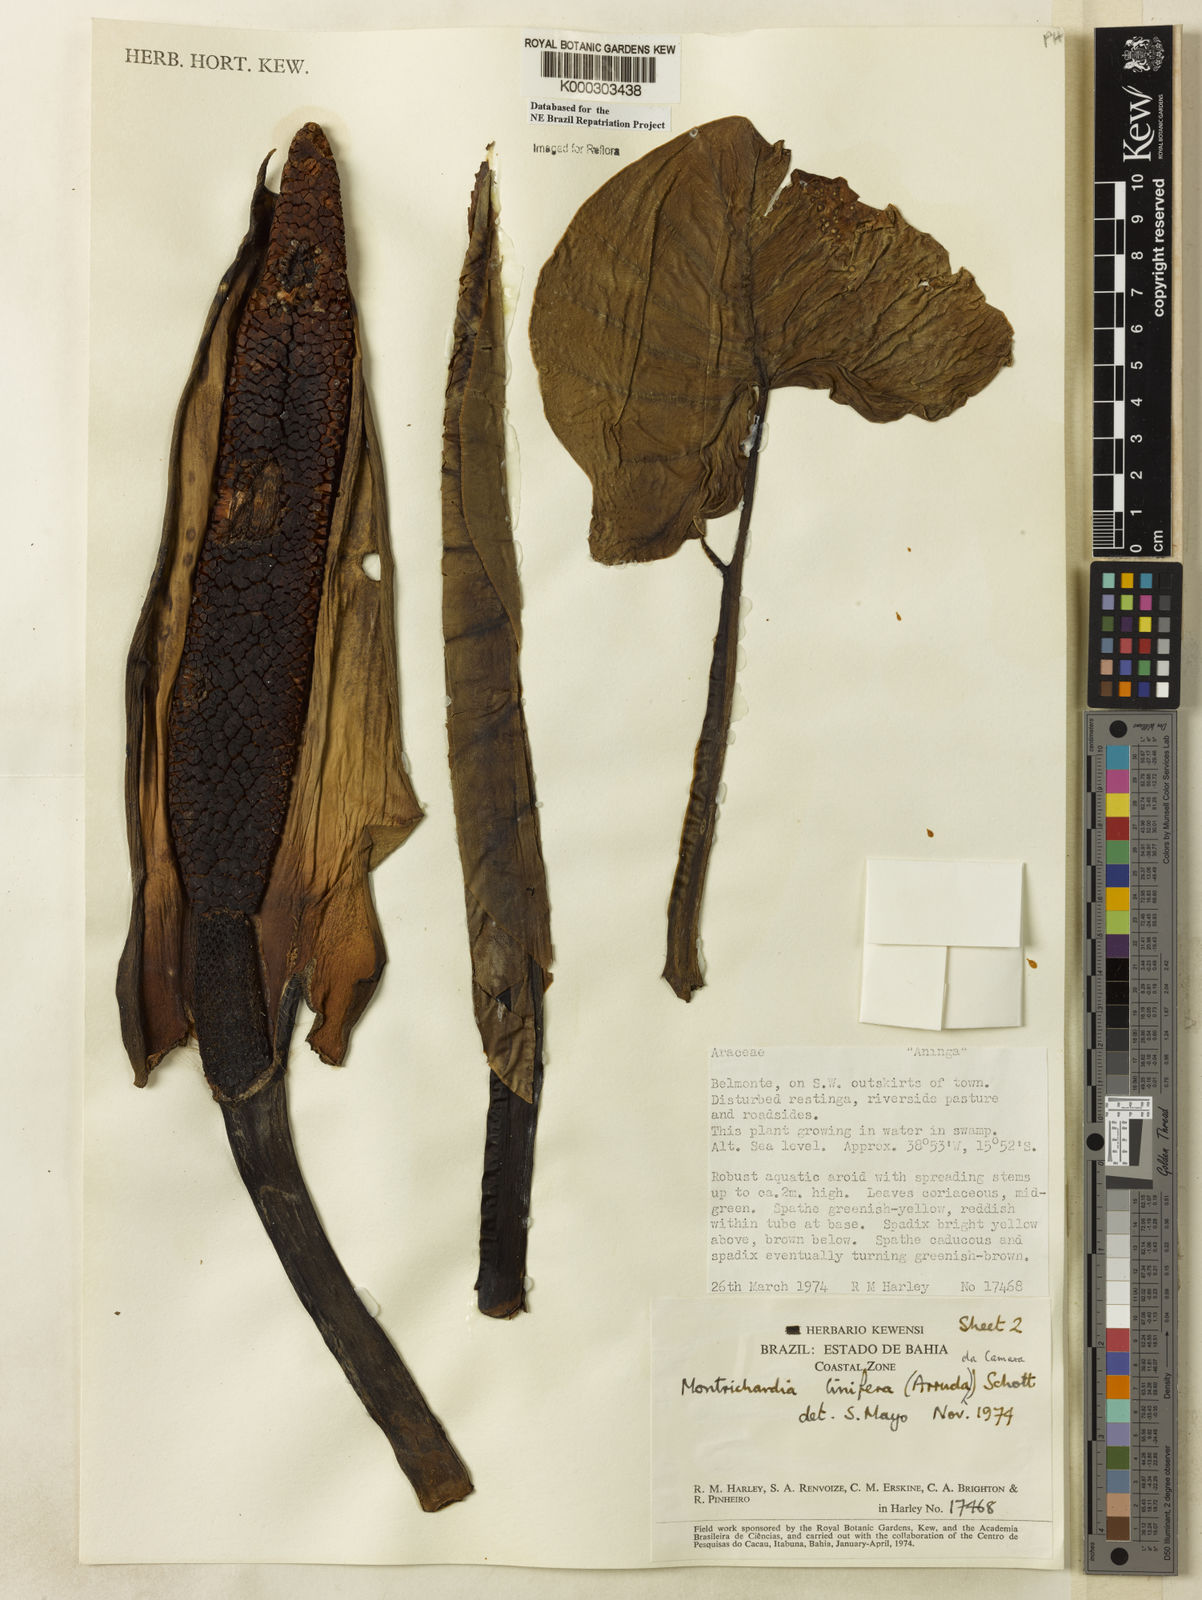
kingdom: Plantae
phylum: Tracheophyta
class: Liliopsida
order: Alismatales
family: Araceae
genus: Montrichardia
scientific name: Montrichardia linifera
